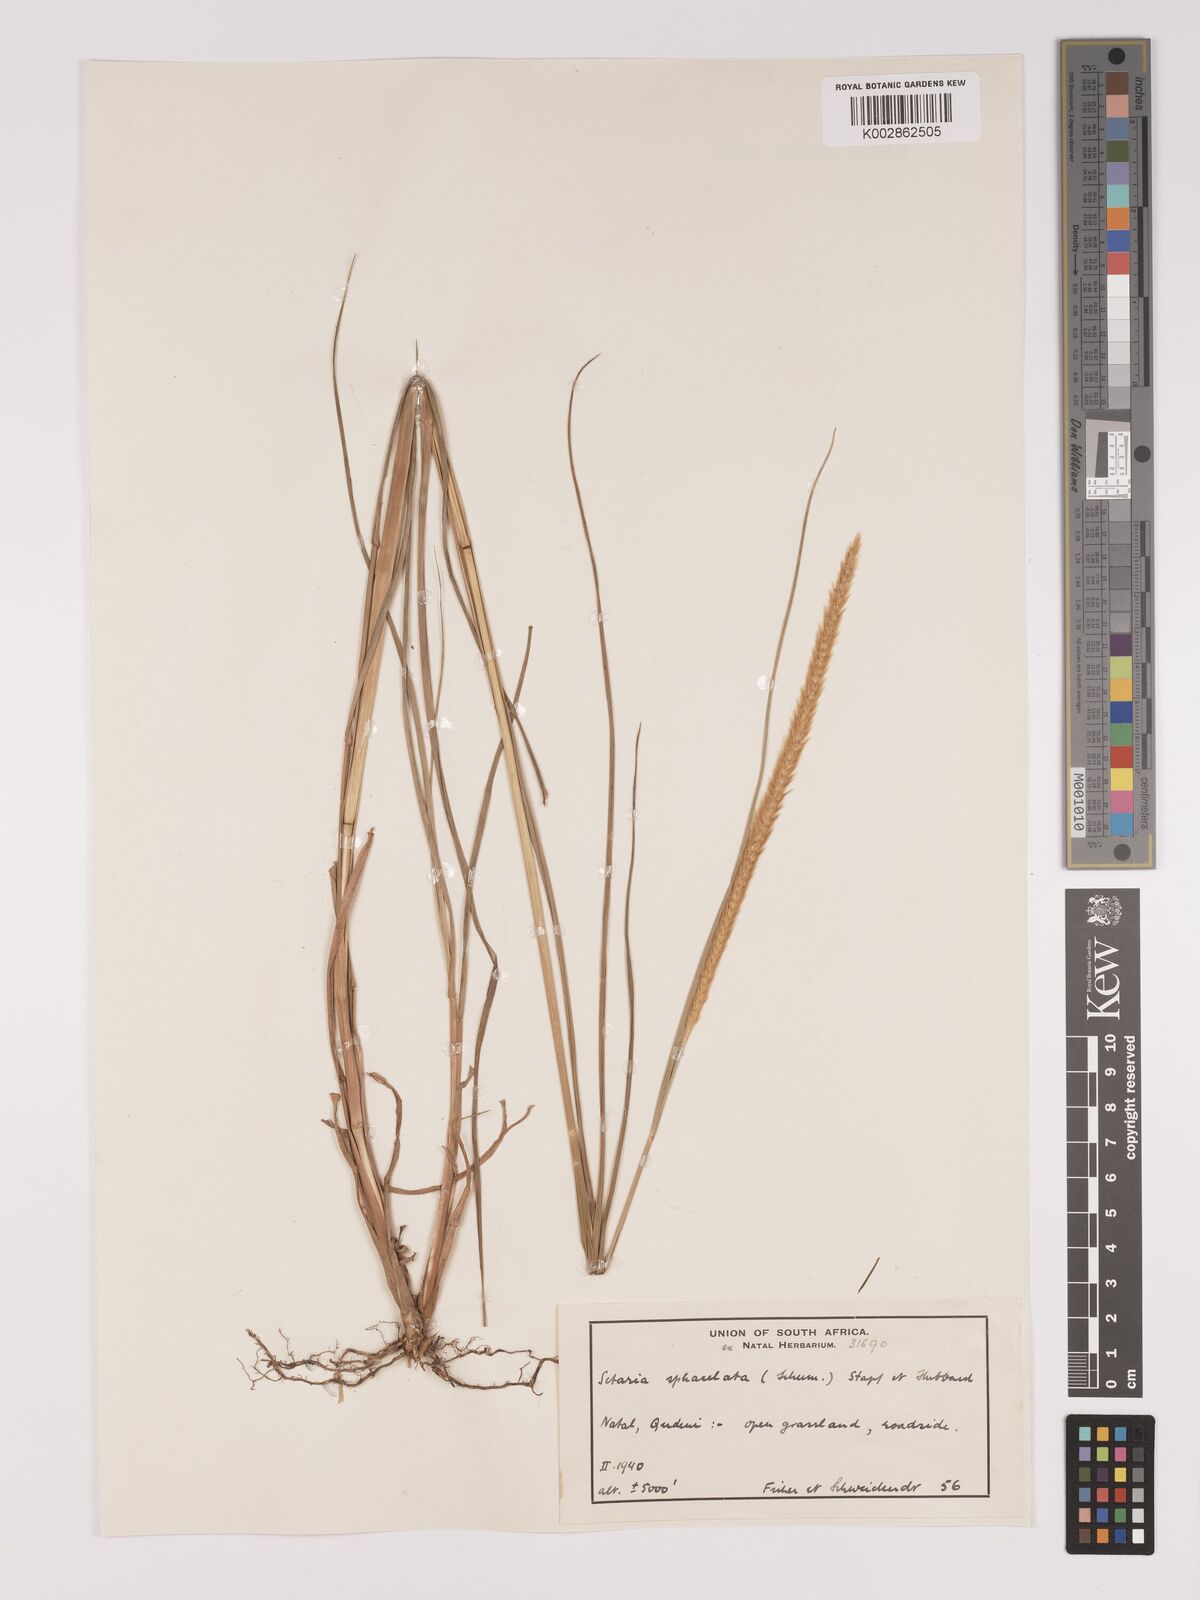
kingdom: Plantae
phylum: Tracheophyta
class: Liliopsida
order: Poales
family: Poaceae
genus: Setaria
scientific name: Setaria sphacelata
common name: African bristlegrass
